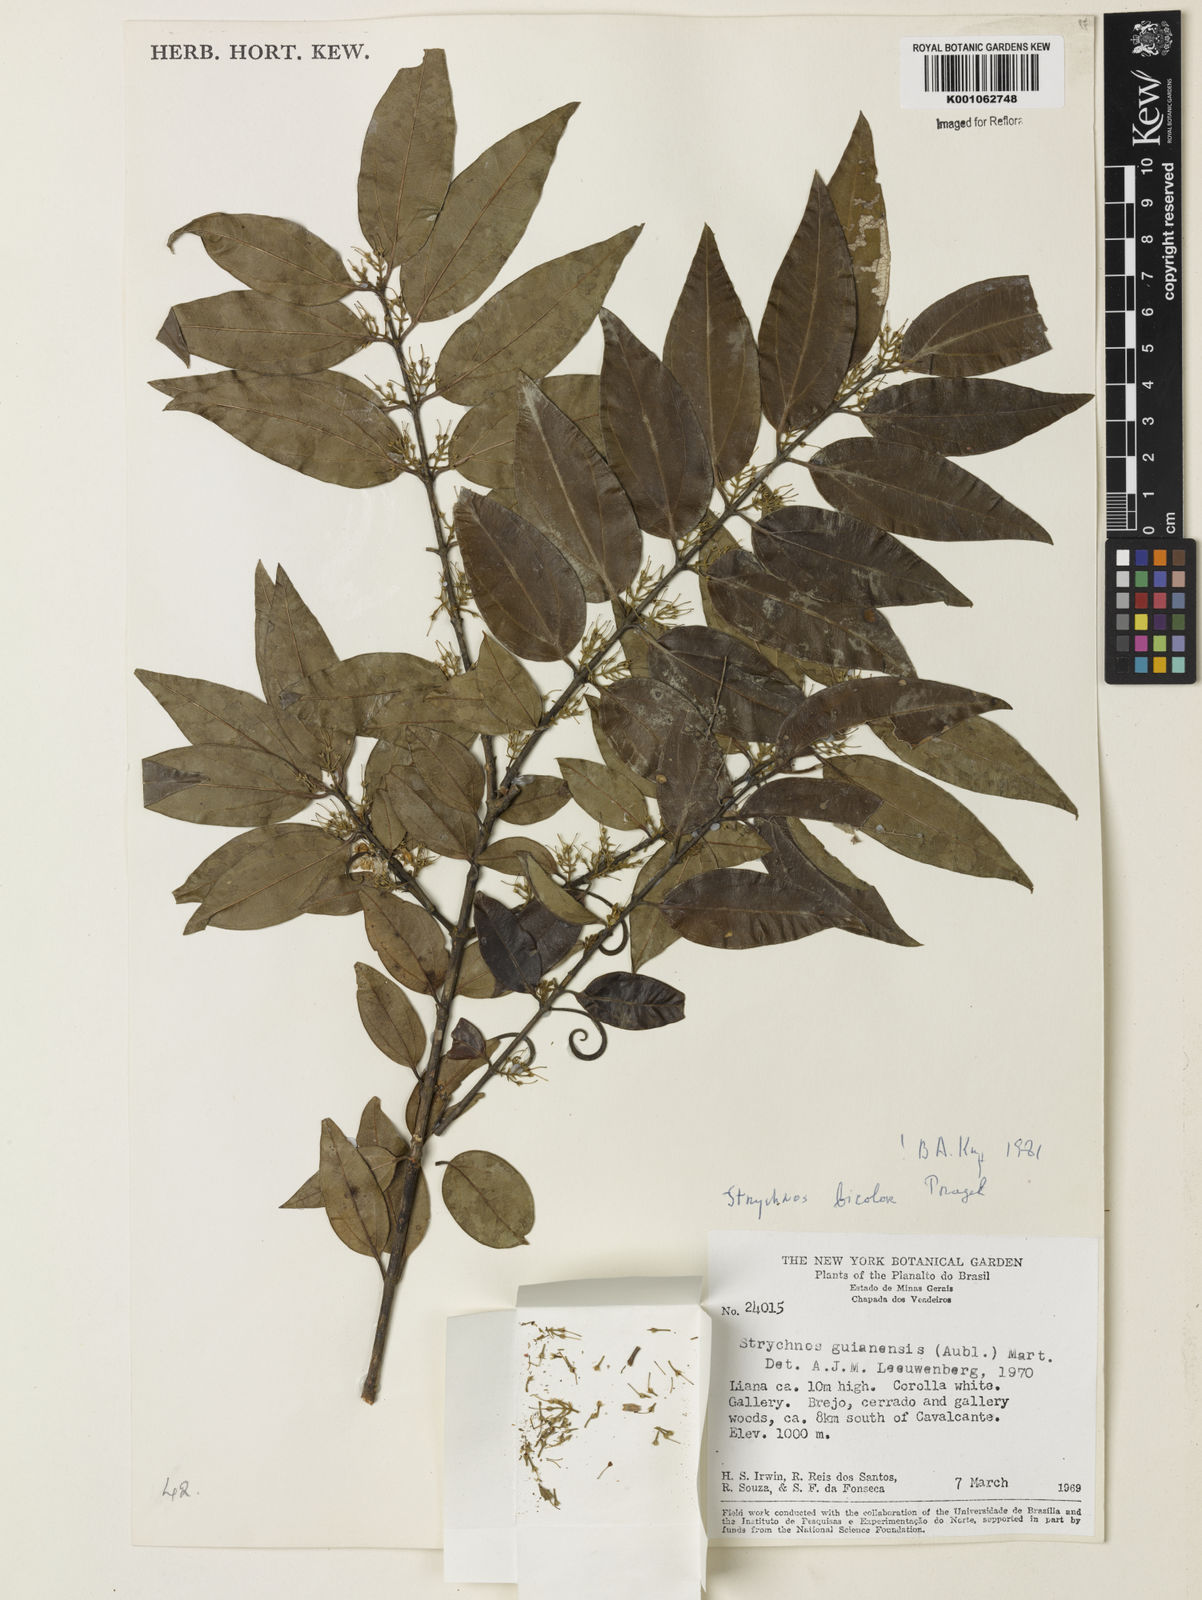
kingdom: Plantae
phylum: Tracheophyta
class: Magnoliopsida
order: Gentianales
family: Loganiaceae
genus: Strychnos
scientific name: Strychnos bicolor
